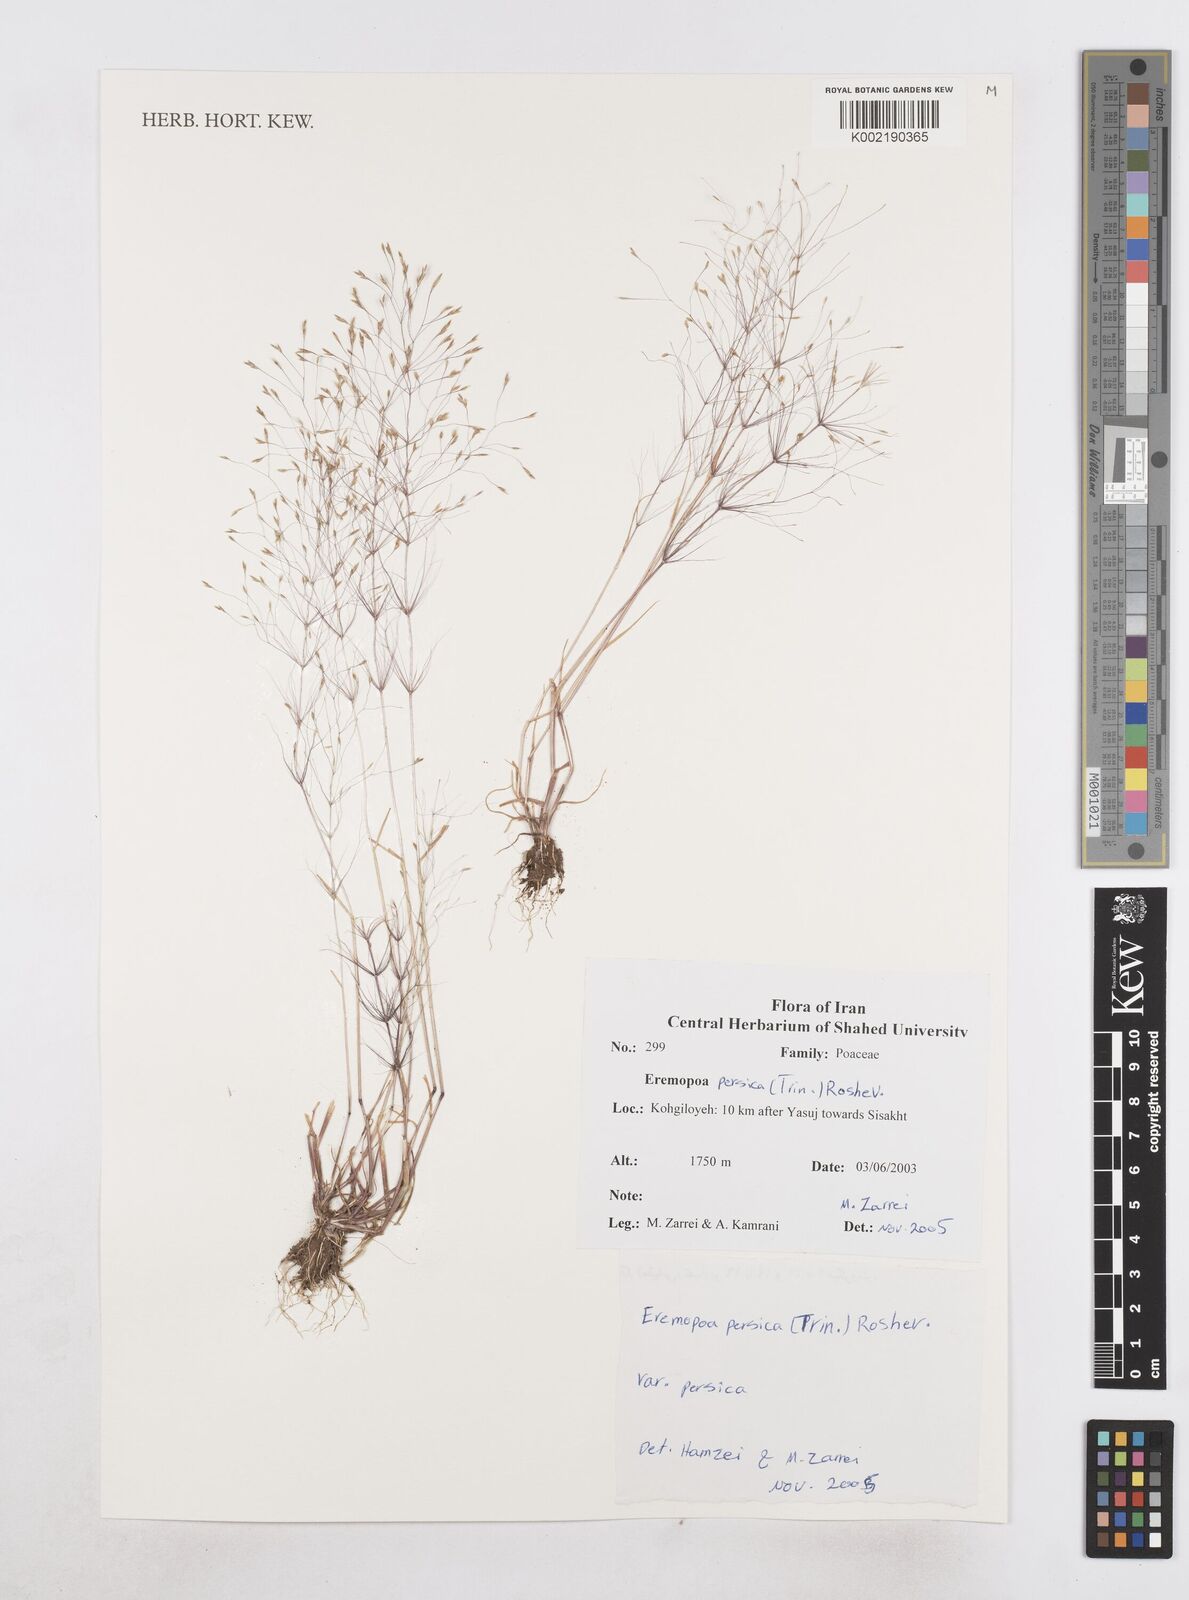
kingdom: Plantae
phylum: Tracheophyta
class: Liliopsida
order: Poales
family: Poaceae
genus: Poa
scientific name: Poa persica
